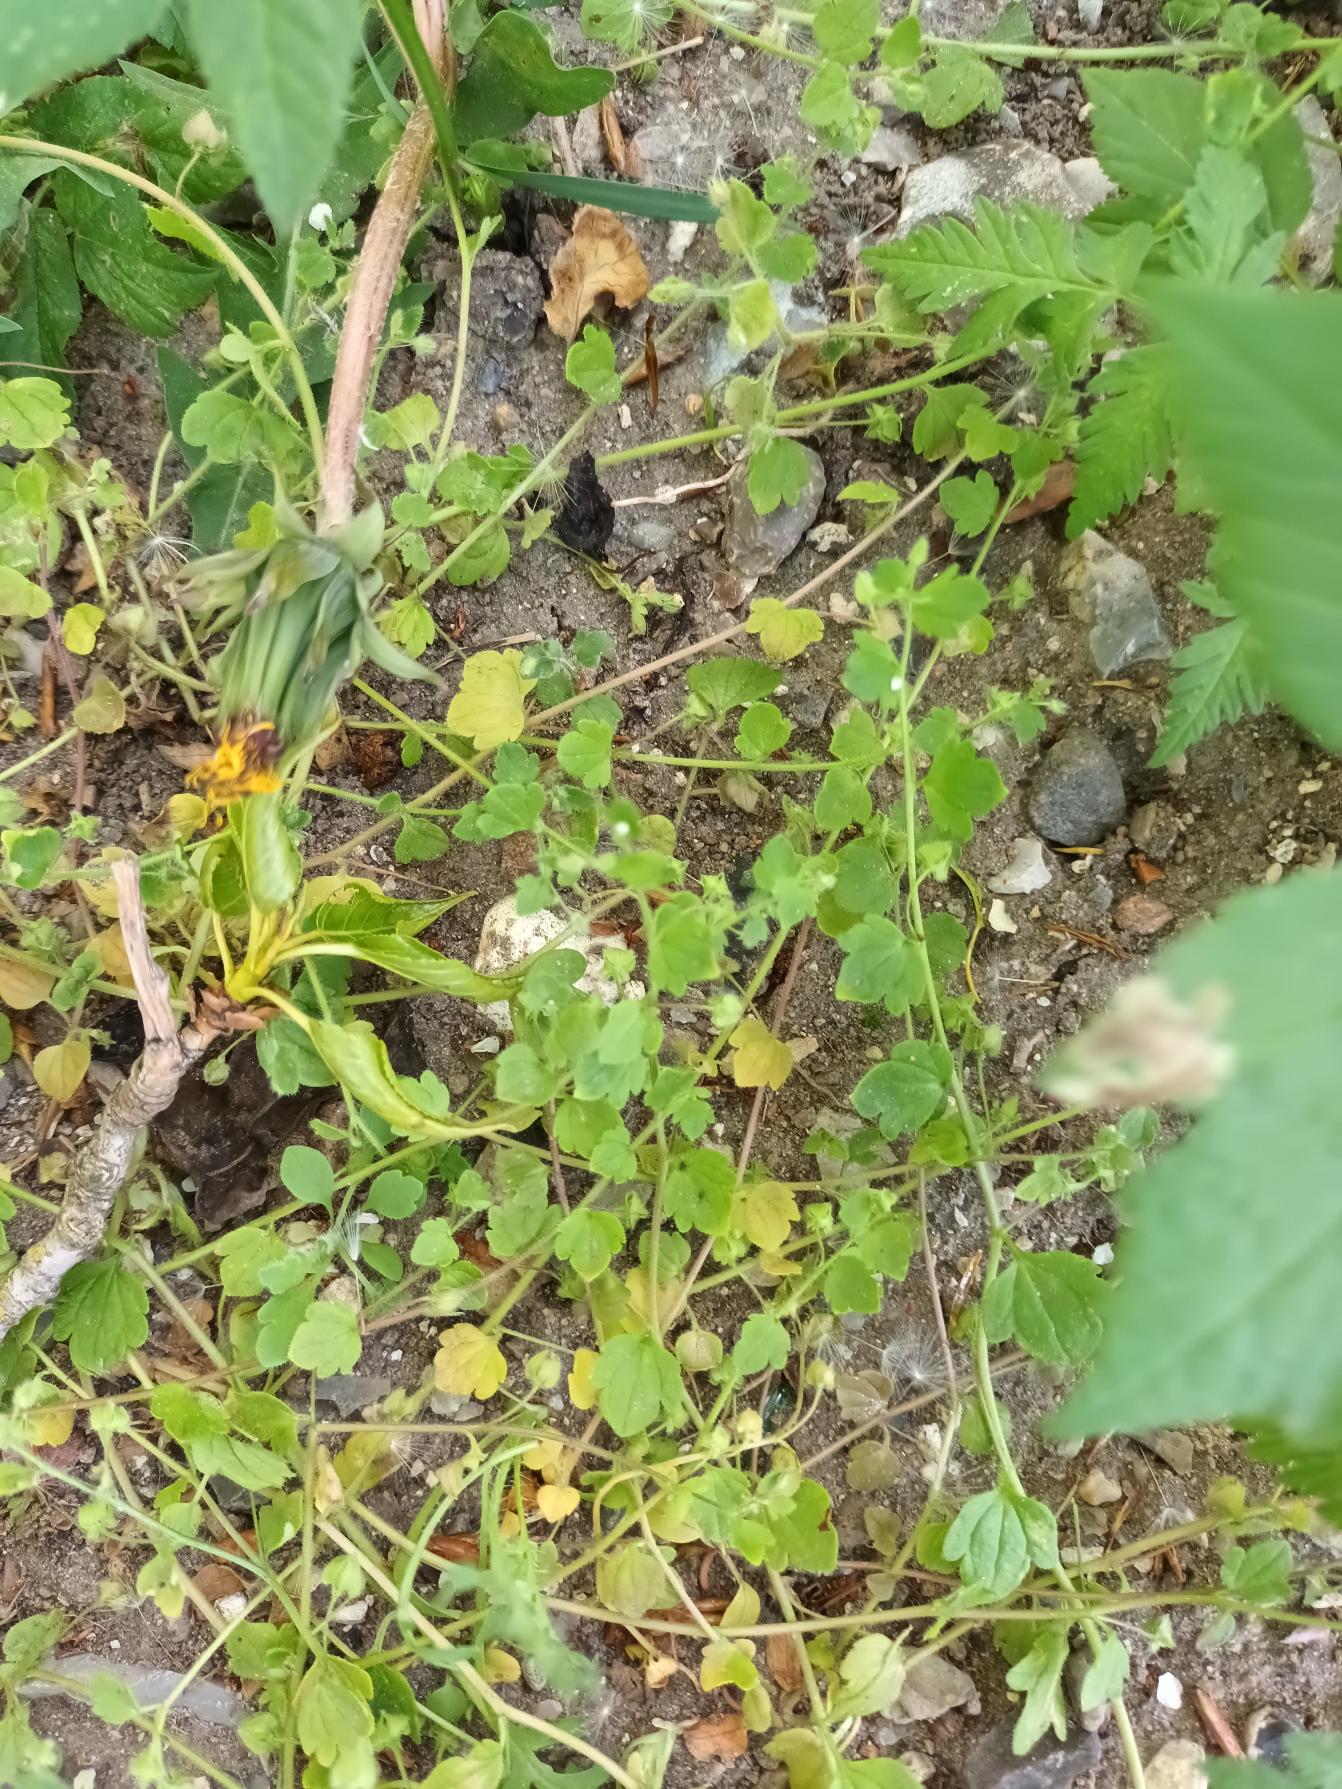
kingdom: Plantae
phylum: Tracheophyta
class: Magnoliopsida
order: Lamiales
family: Plantaginaceae
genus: Veronica
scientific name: Veronica sublobata
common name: Krat-ærenpris
